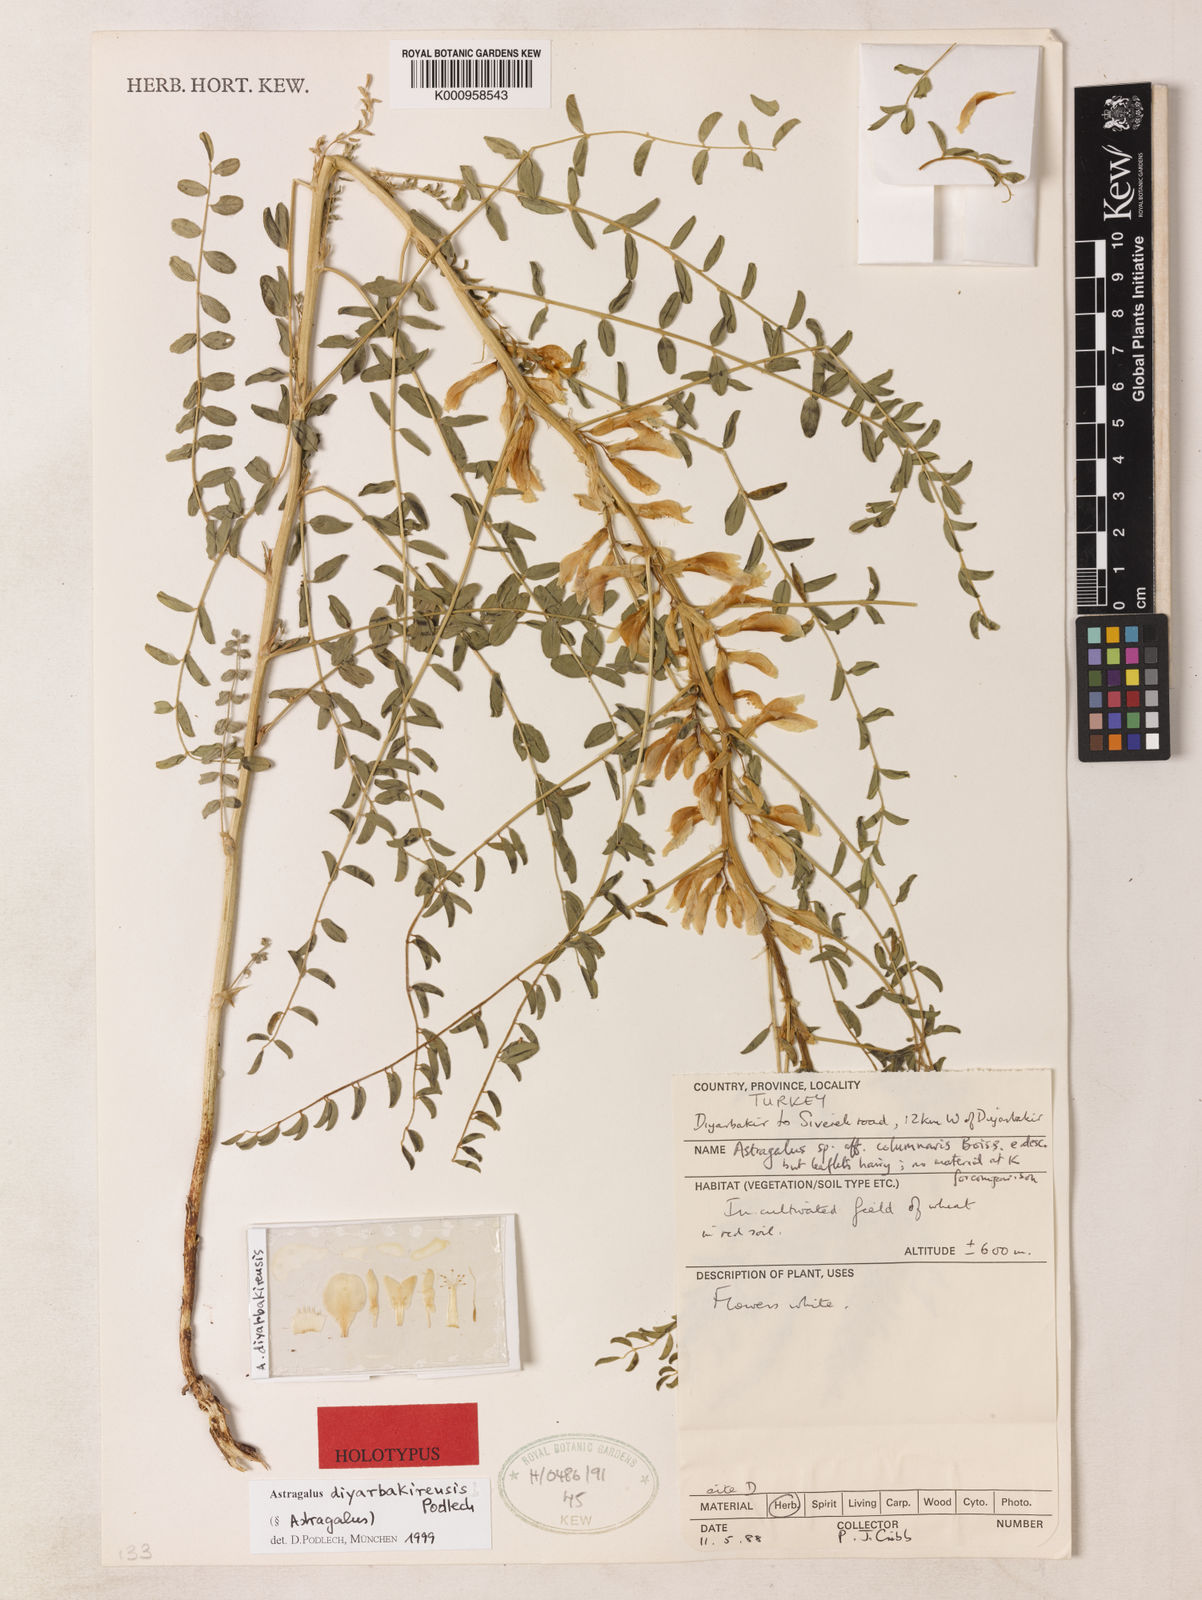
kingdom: Plantae
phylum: Tracheophyta
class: Magnoliopsida
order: Fabales
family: Fabaceae
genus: Astragalus
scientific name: Astragalus
